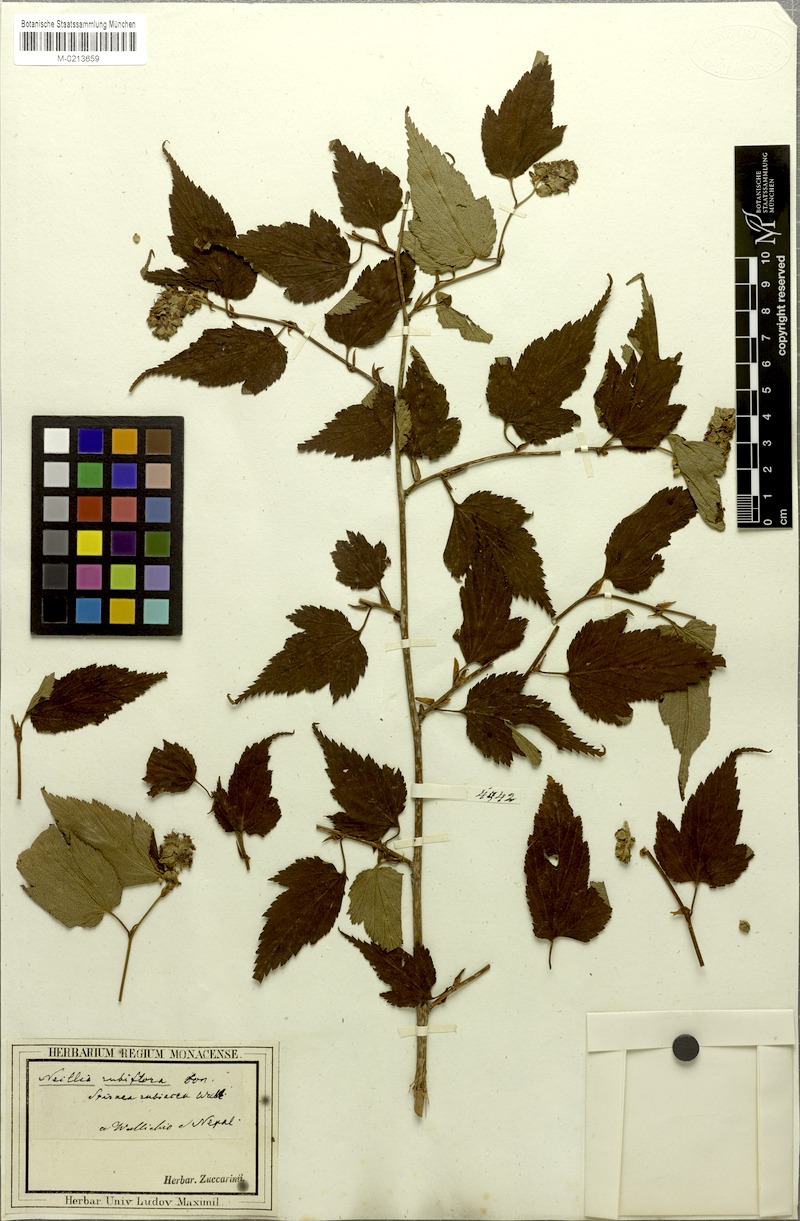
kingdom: Plantae
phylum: Tracheophyta
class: Magnoliopsida
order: Rosales
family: Rosaceae
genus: Neillia
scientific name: Neillia rubiflora
